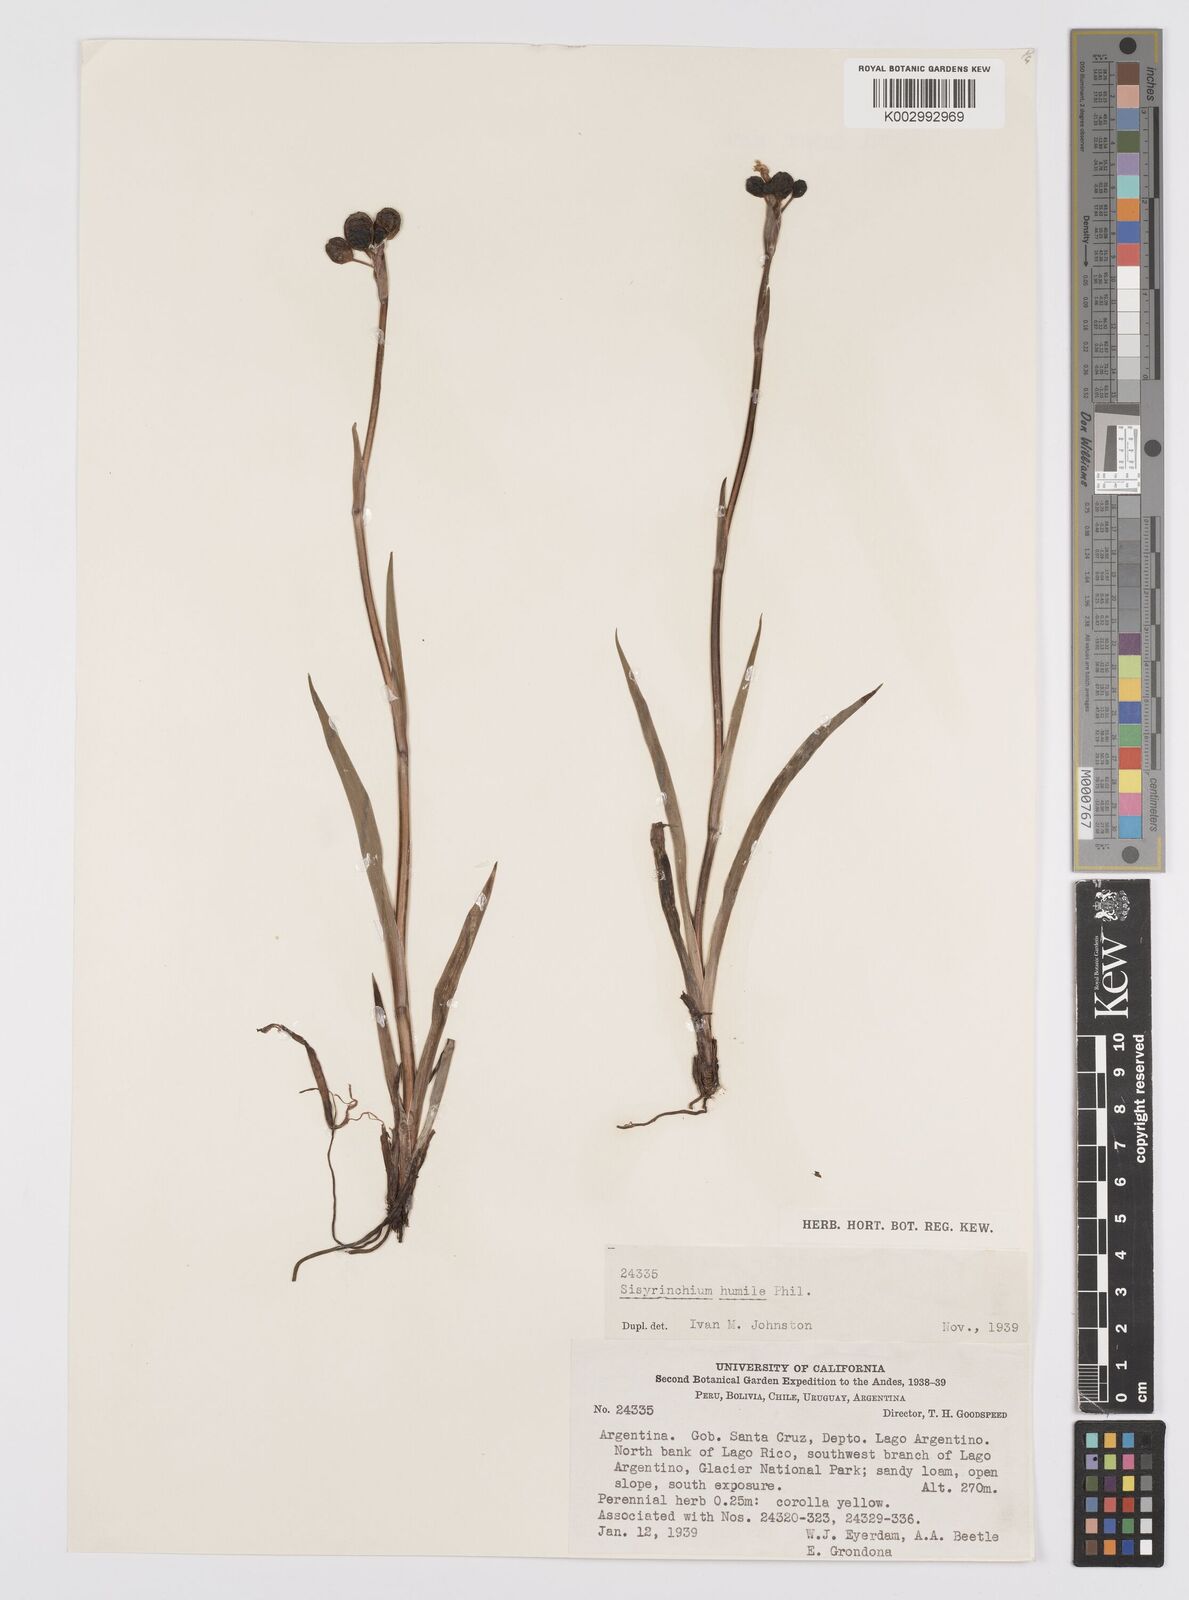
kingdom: Plantae
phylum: Tracheophyta
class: Liliopsida
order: Asparagales
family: Iridaceae
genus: Sisyrinchium
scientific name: Sisyrinchium arenarium
